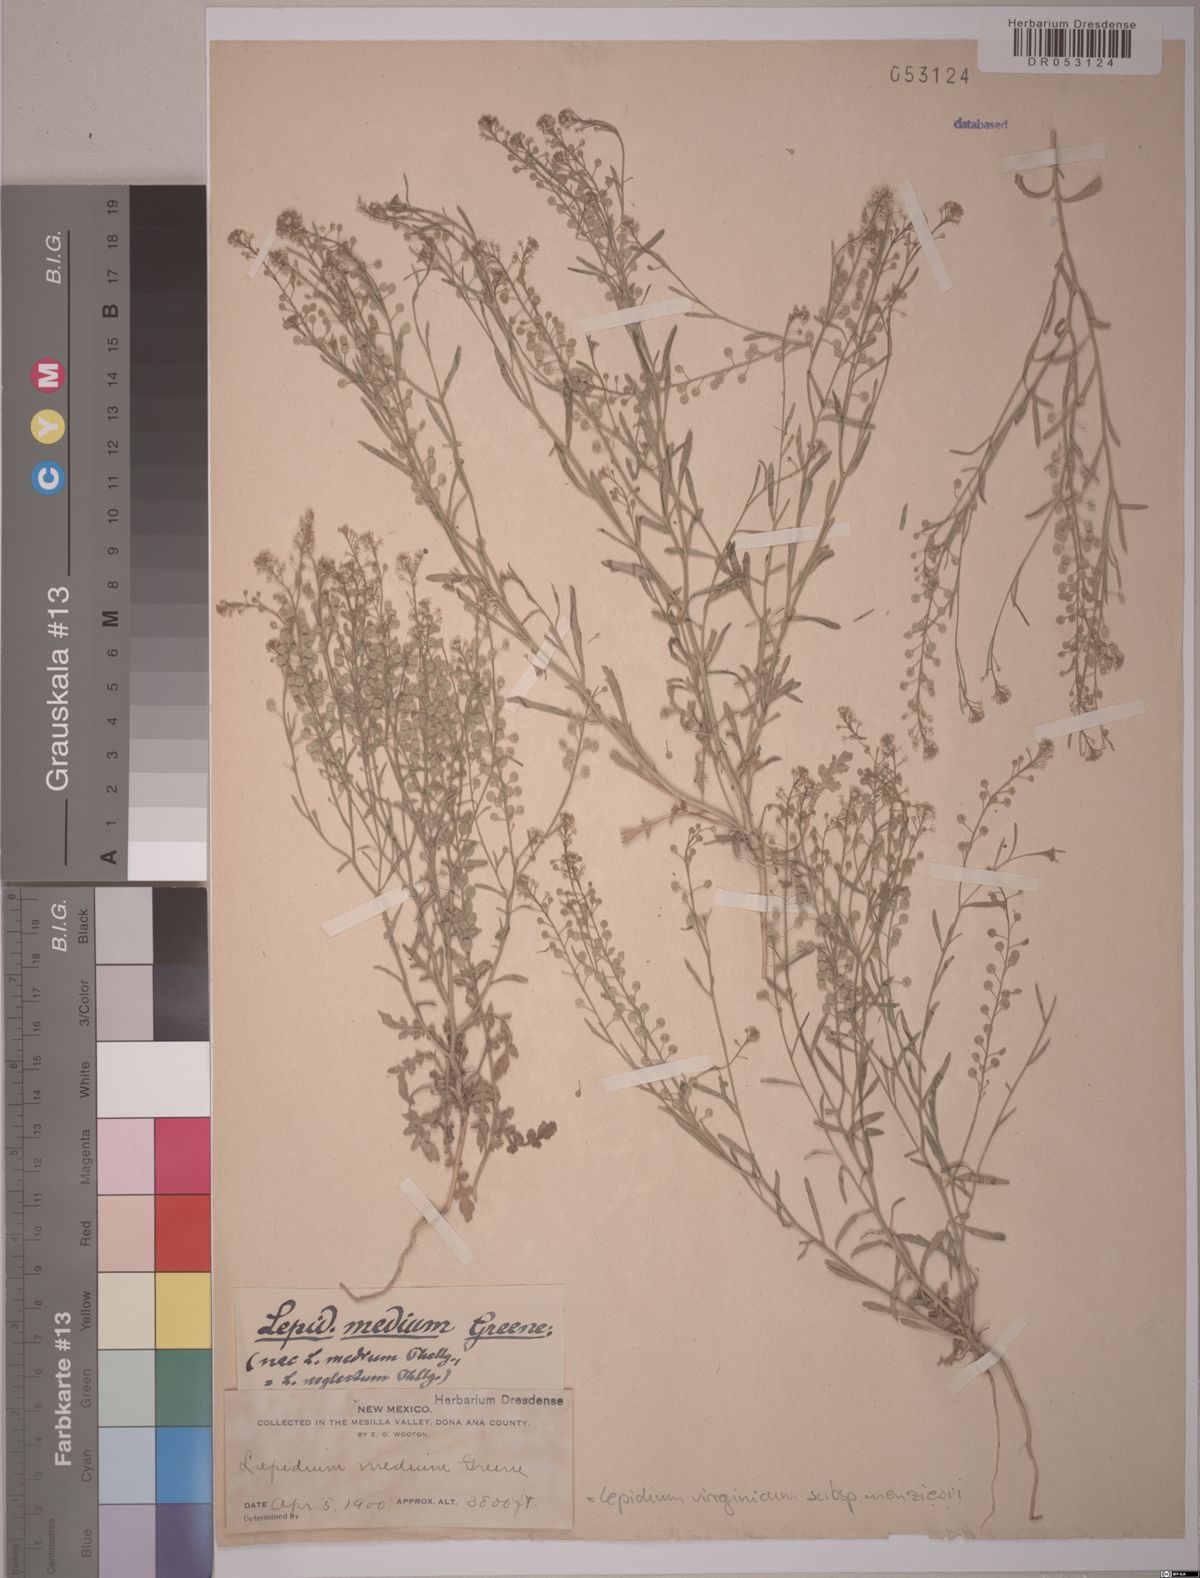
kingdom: Plantae
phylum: Tracheophyta
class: Magnoliopsida
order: Brassicales
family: Brassicaceae
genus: Lepidium
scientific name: Lepidium virginicum
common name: Least pepperwort
